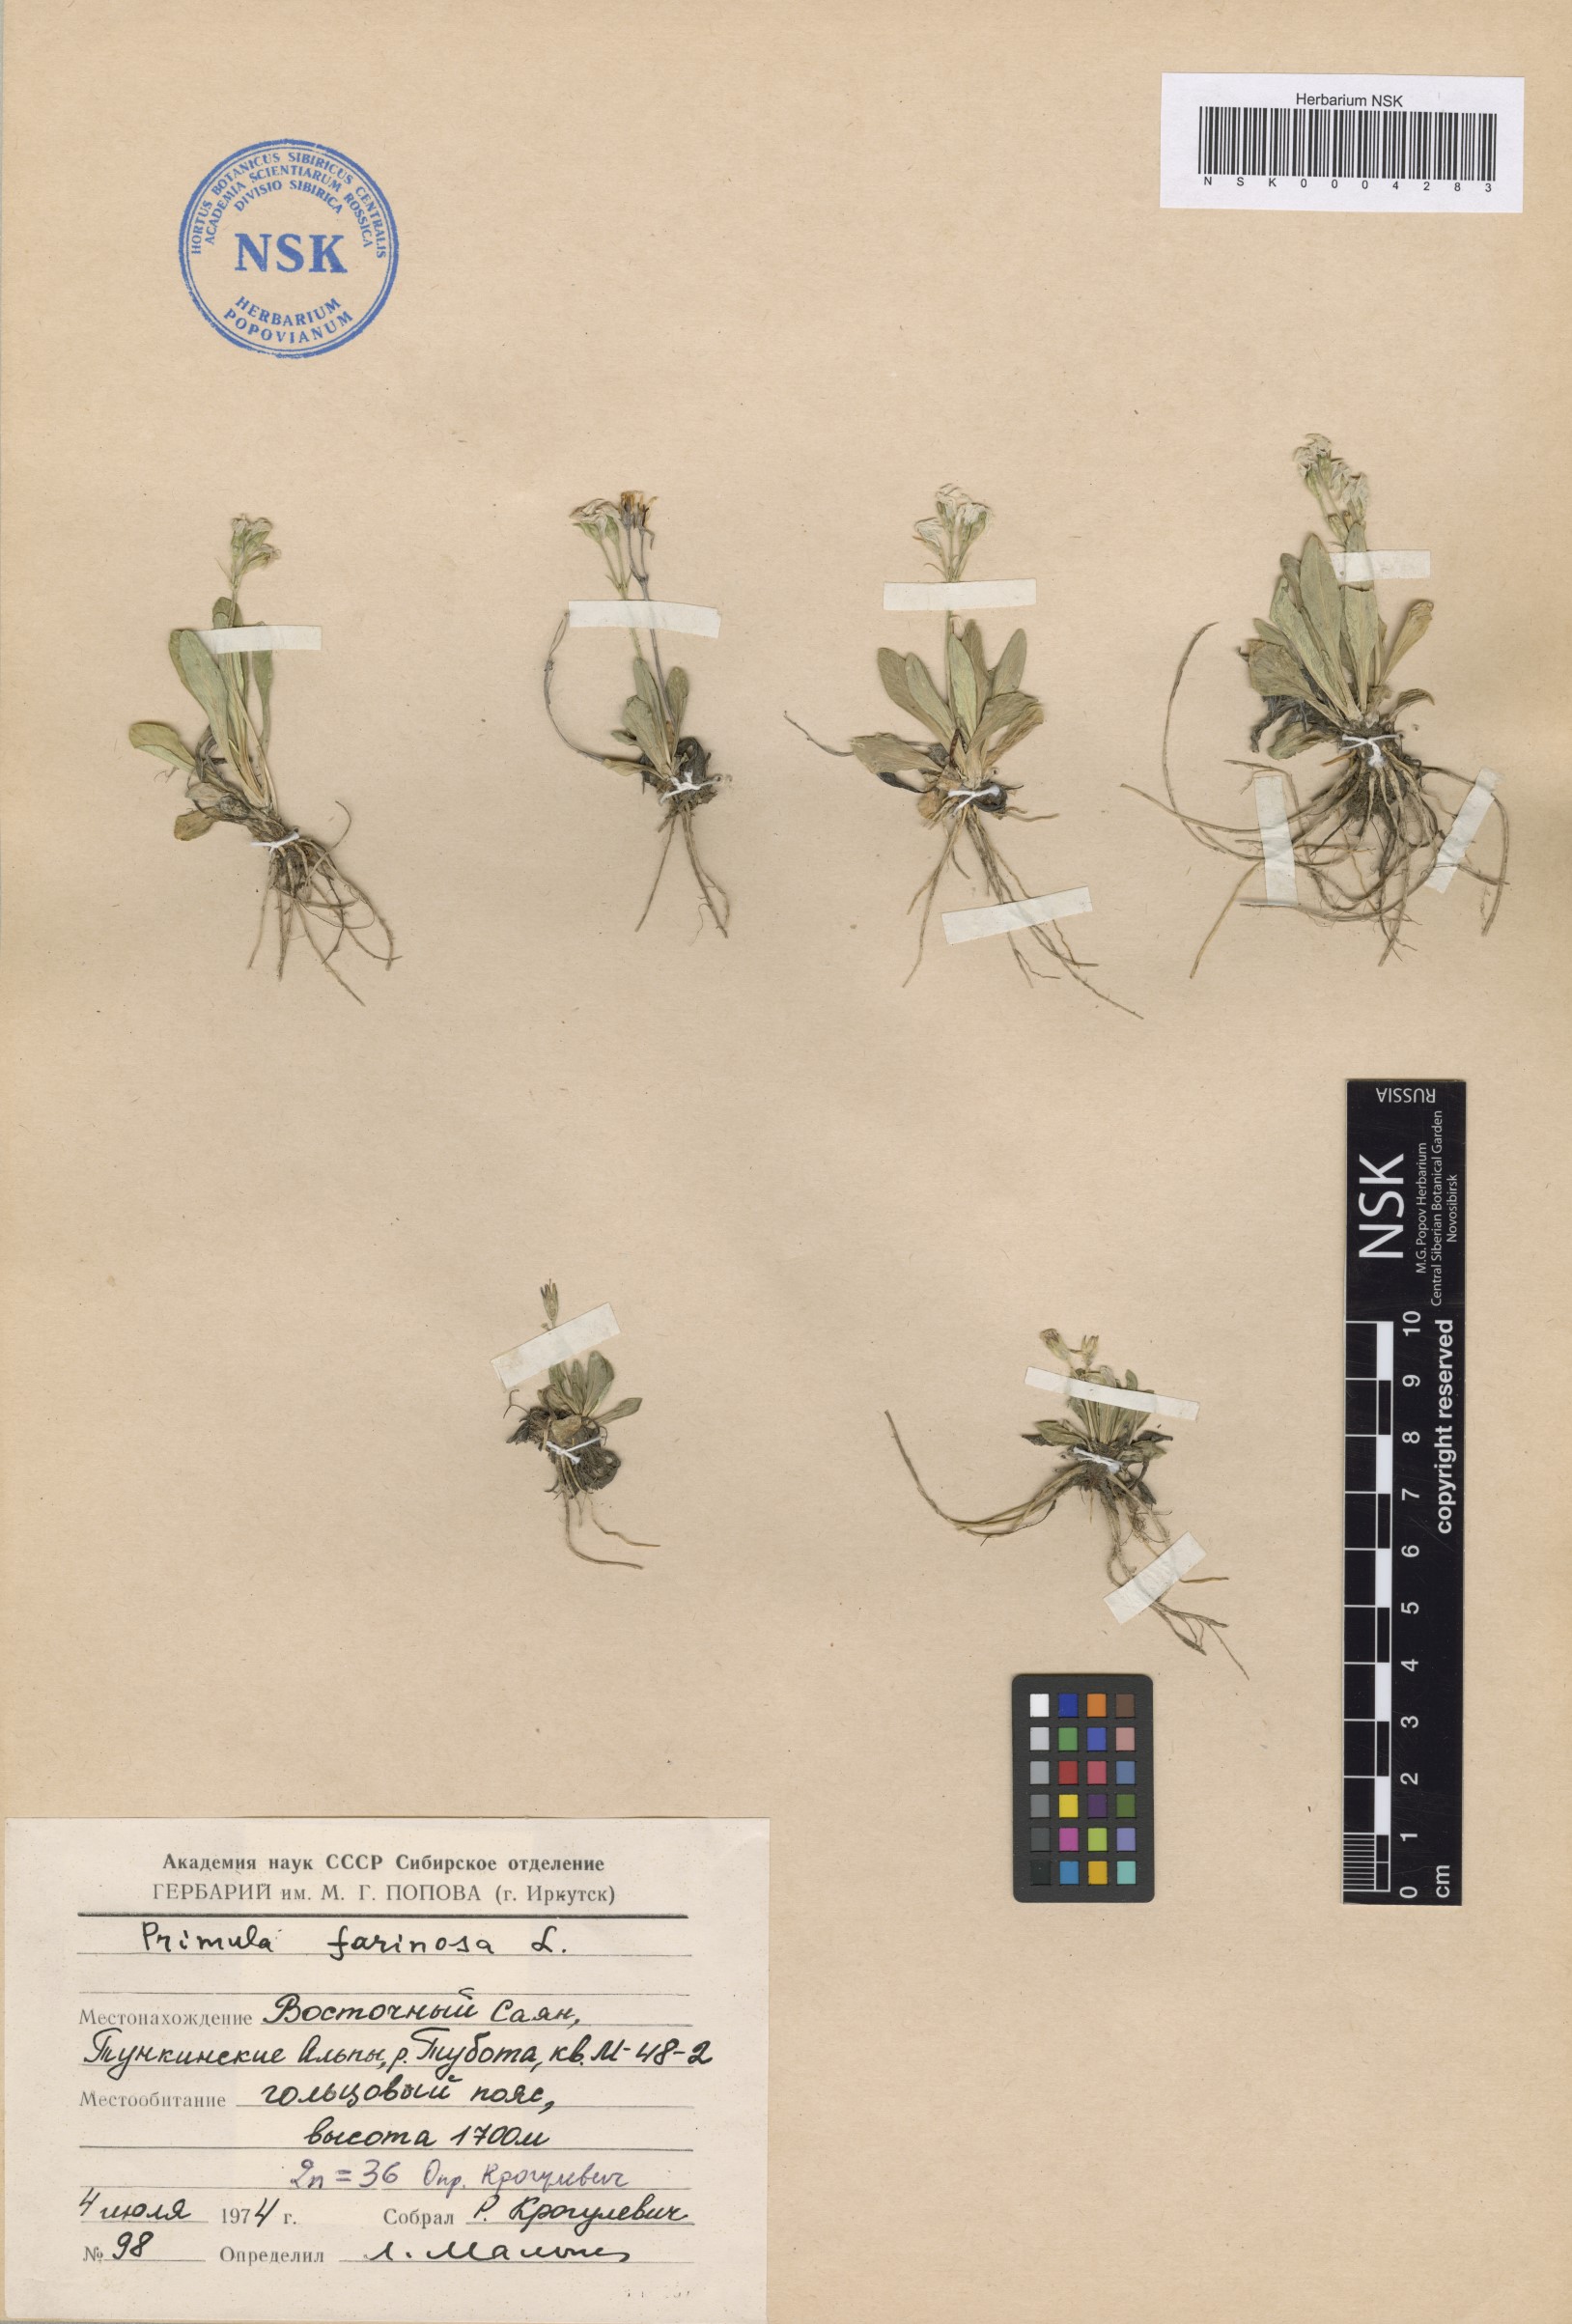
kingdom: Plantae
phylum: Tracheophyta
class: Magnoliopsida
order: Ericales
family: Primulaceae
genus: Primula
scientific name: Primula farinosa
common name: Bird's-eye primrose
